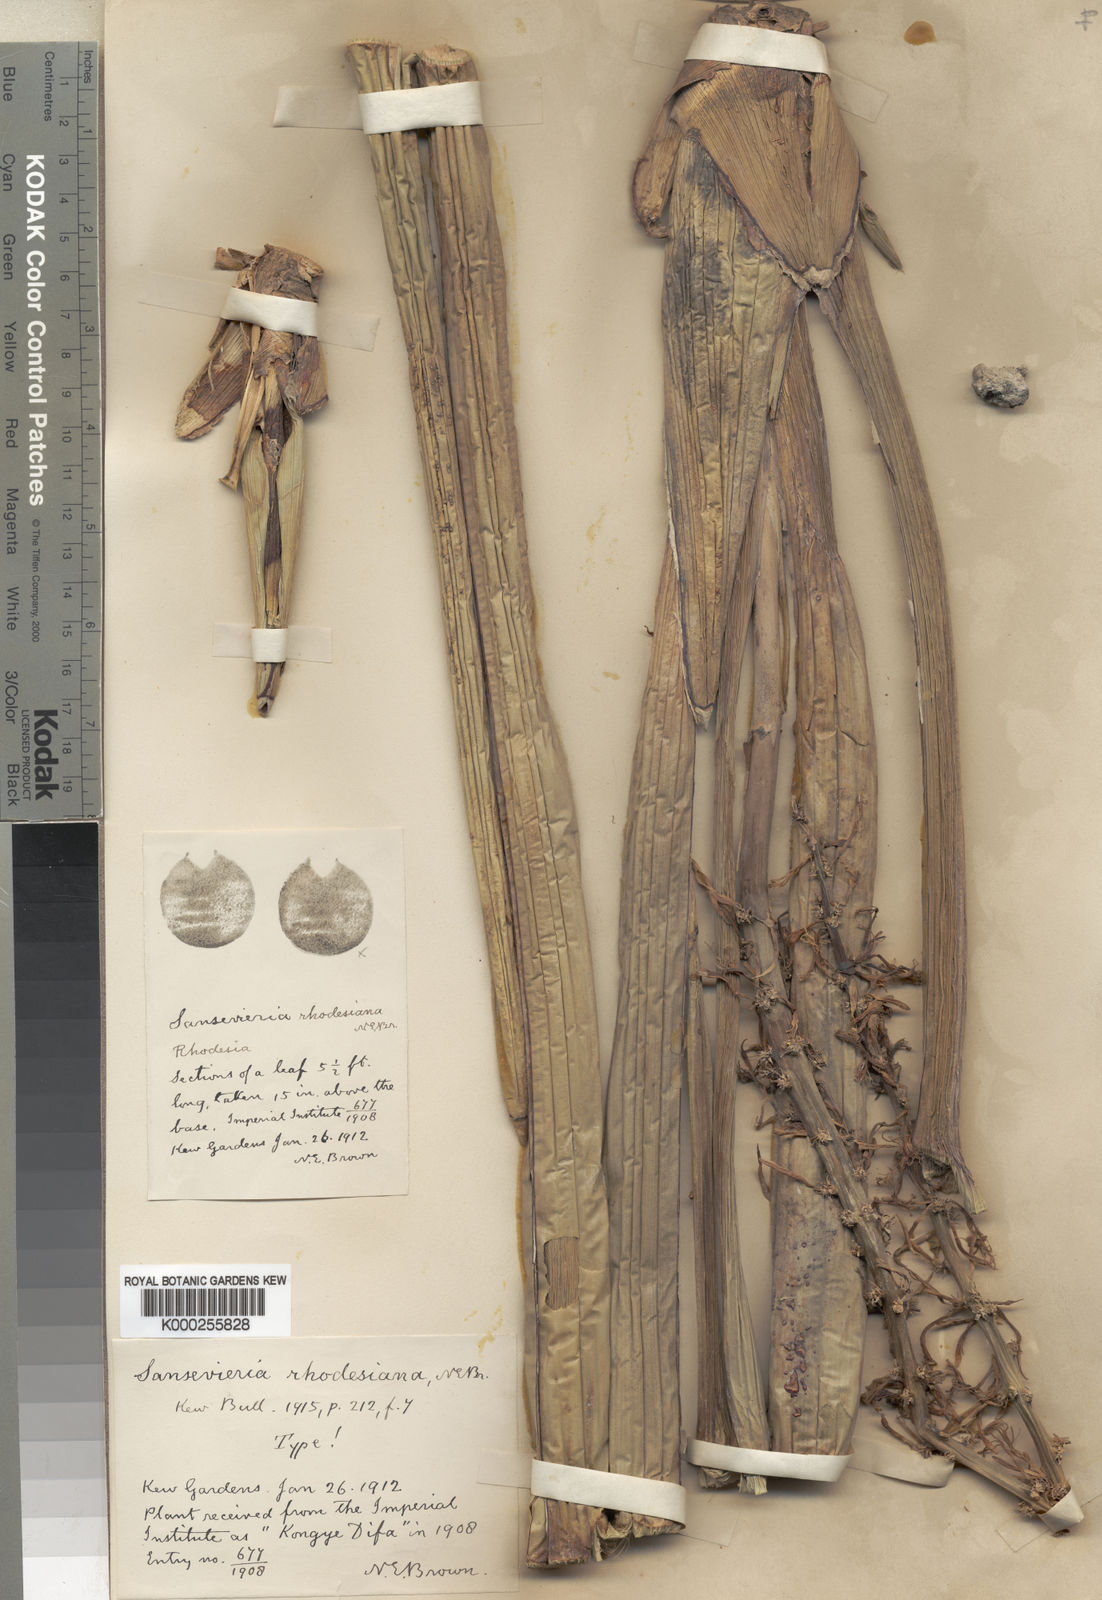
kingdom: Plantae
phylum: Tracheophyta
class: Liliopsida
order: Asparagales
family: Asparagaceae
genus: Dracaena
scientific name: Dracaena pearsonii
